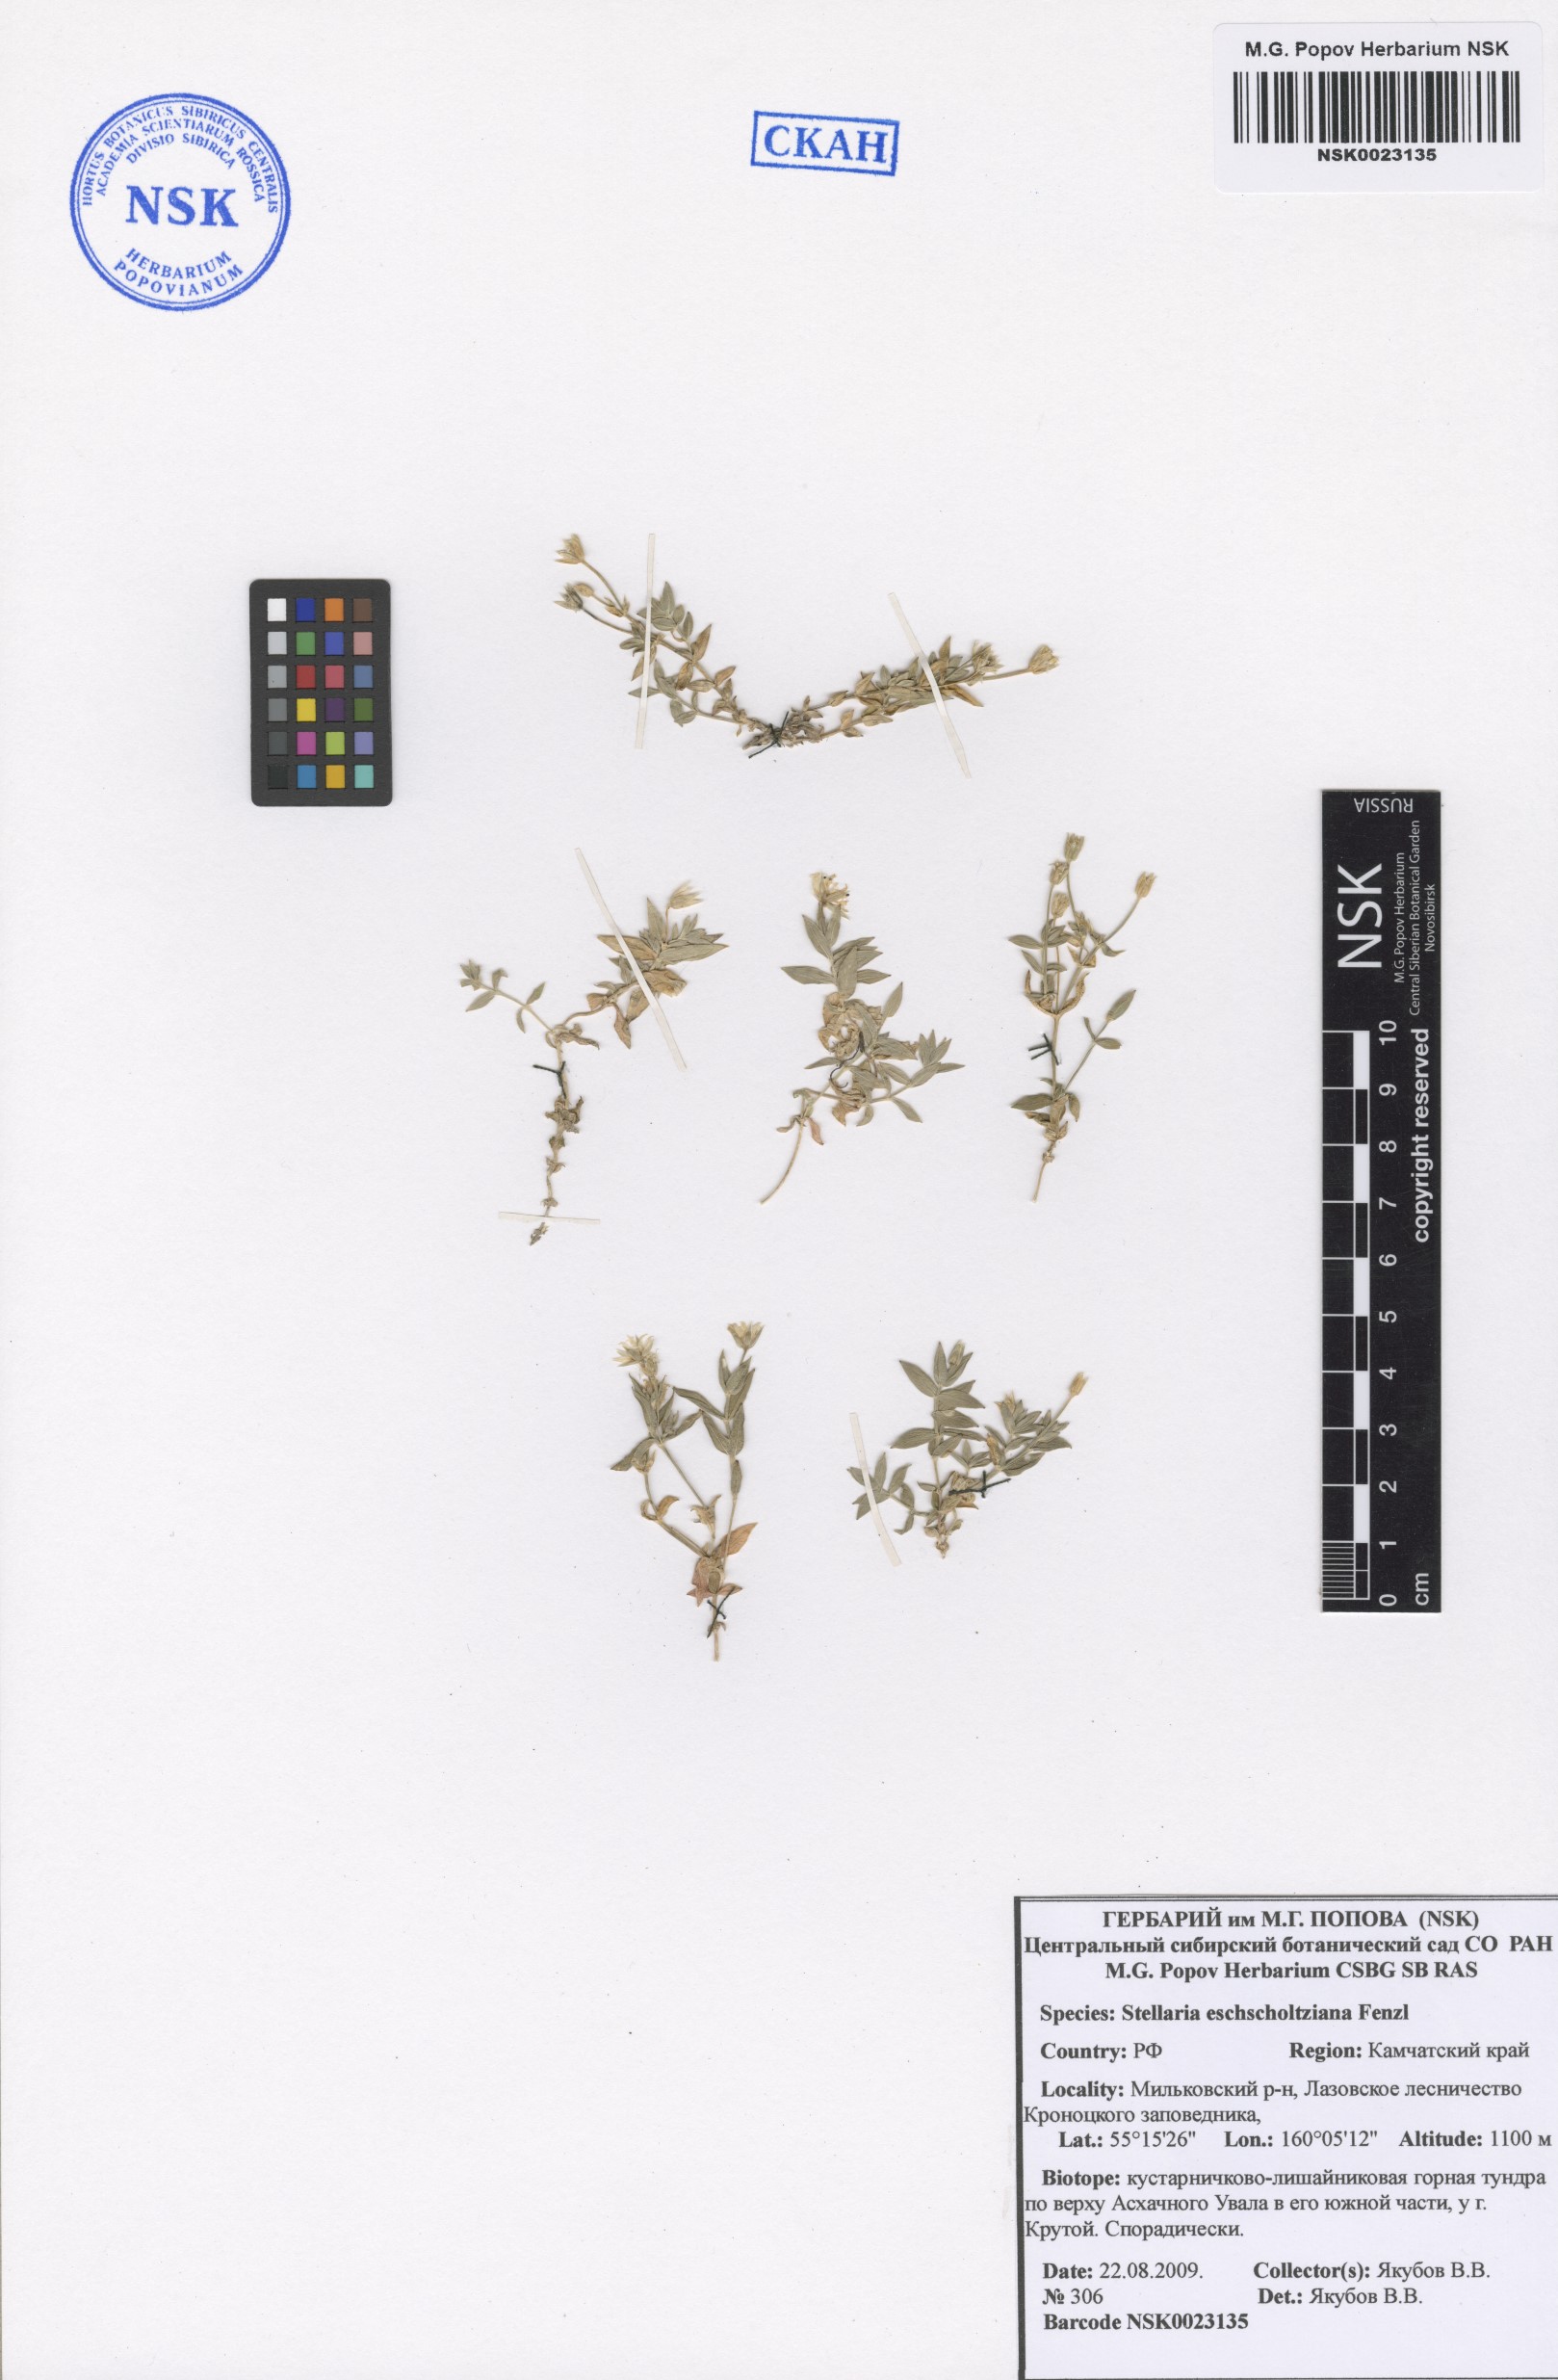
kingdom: Plantae
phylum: Tracheophyta
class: Magnoliopsida
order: Caryophyllales
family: Caryophyllaceae
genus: Stellaria
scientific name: Stellaria eschscholtziana
